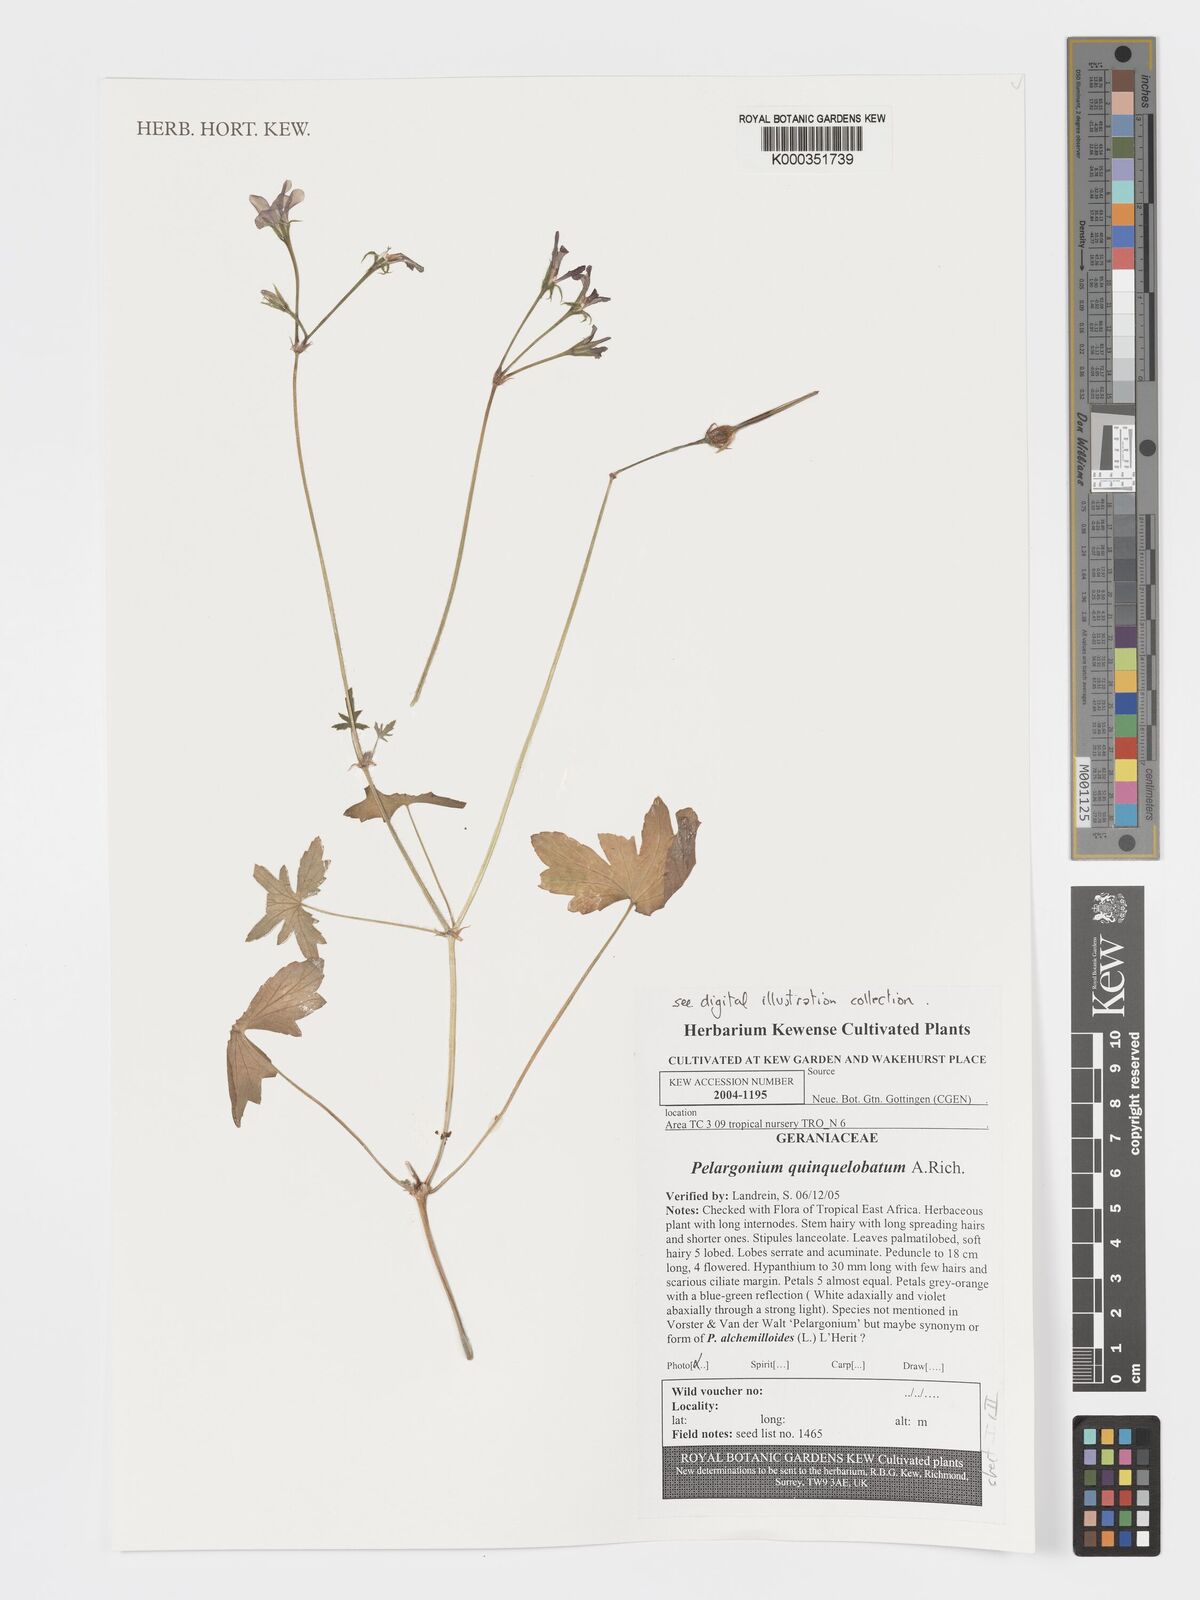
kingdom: Plantae
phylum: Tracheophyta
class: Magnoliopsida
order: Geraniales
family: Geraniaceae
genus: Pelargonium
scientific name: Pelargonium quinquelobatum
